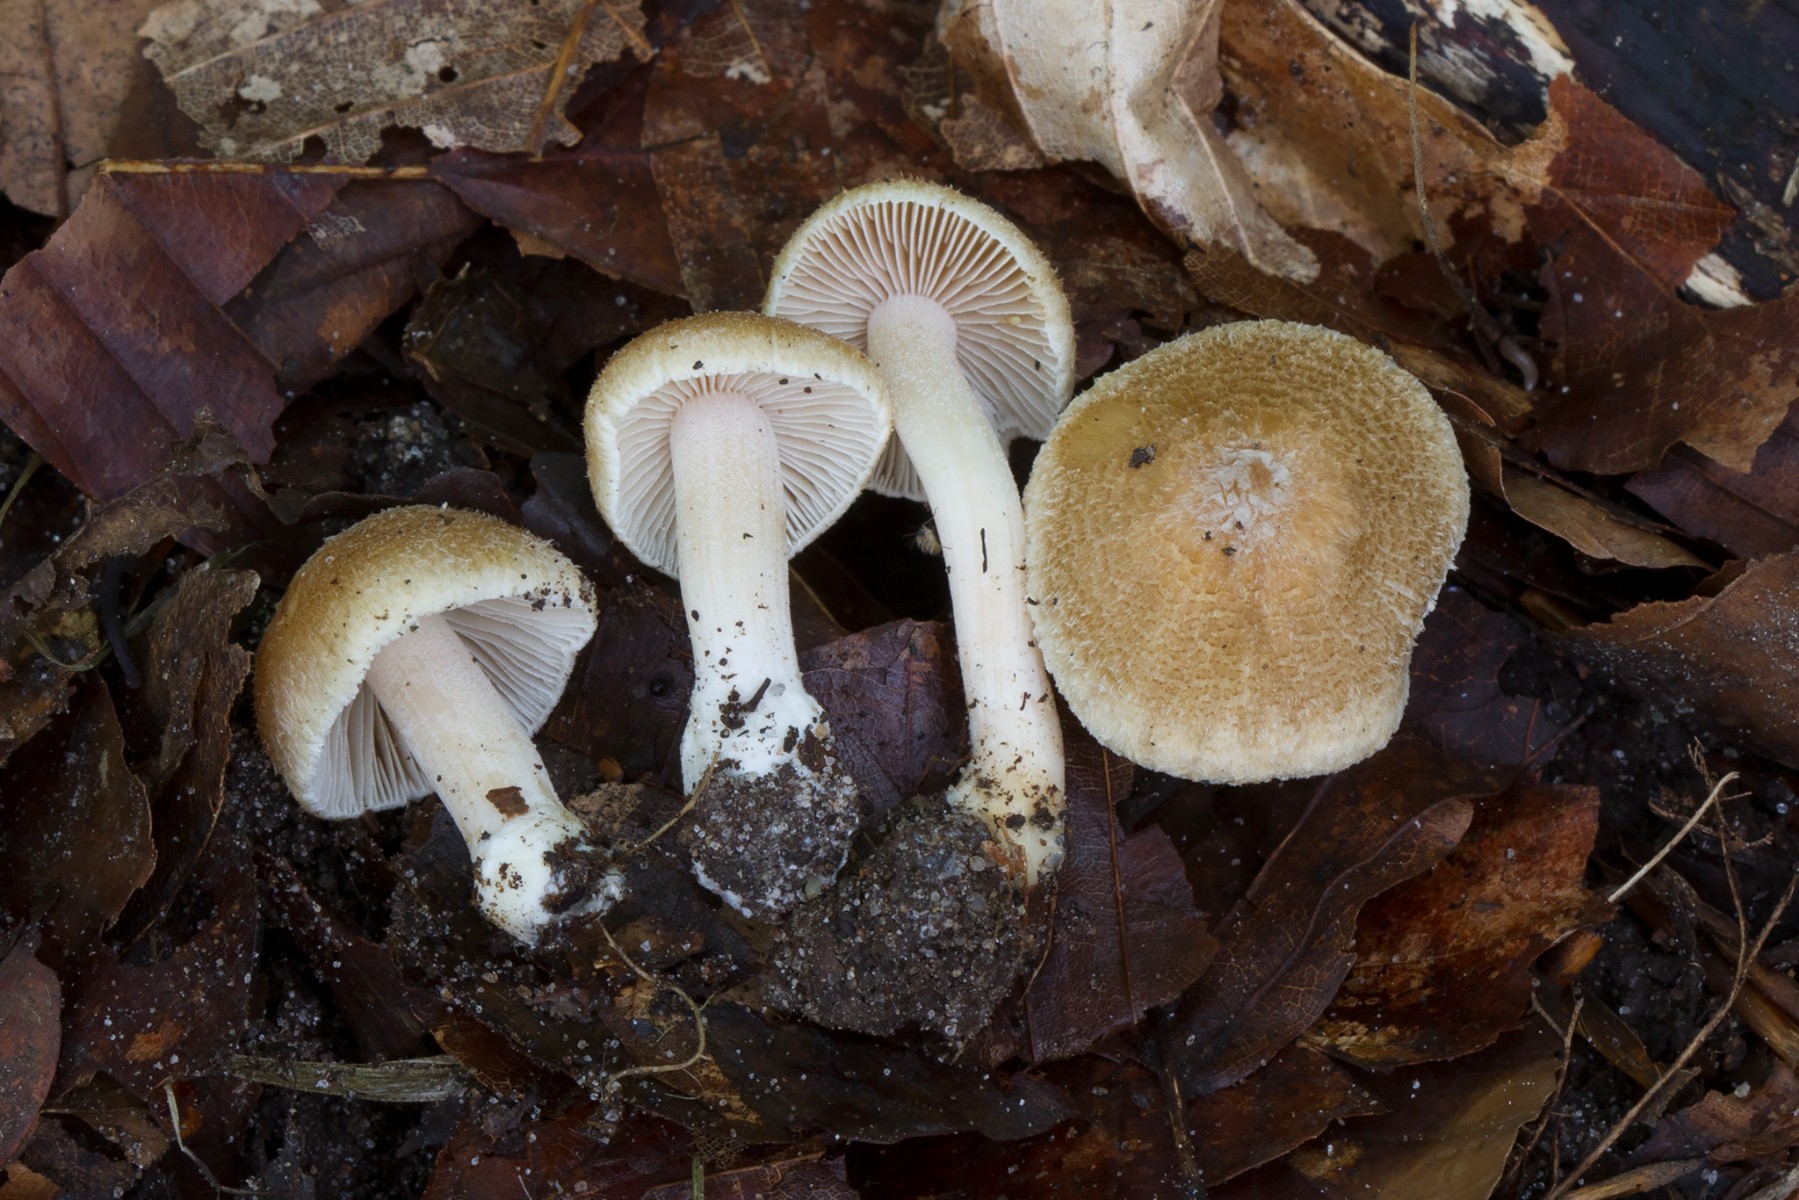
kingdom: Fungi
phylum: Basidiomycota
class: Agaricomycetes
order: Agaricales
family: Inocybaceae
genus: Inocybe
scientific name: Inocybe hirtella
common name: mandel-trævlhat
